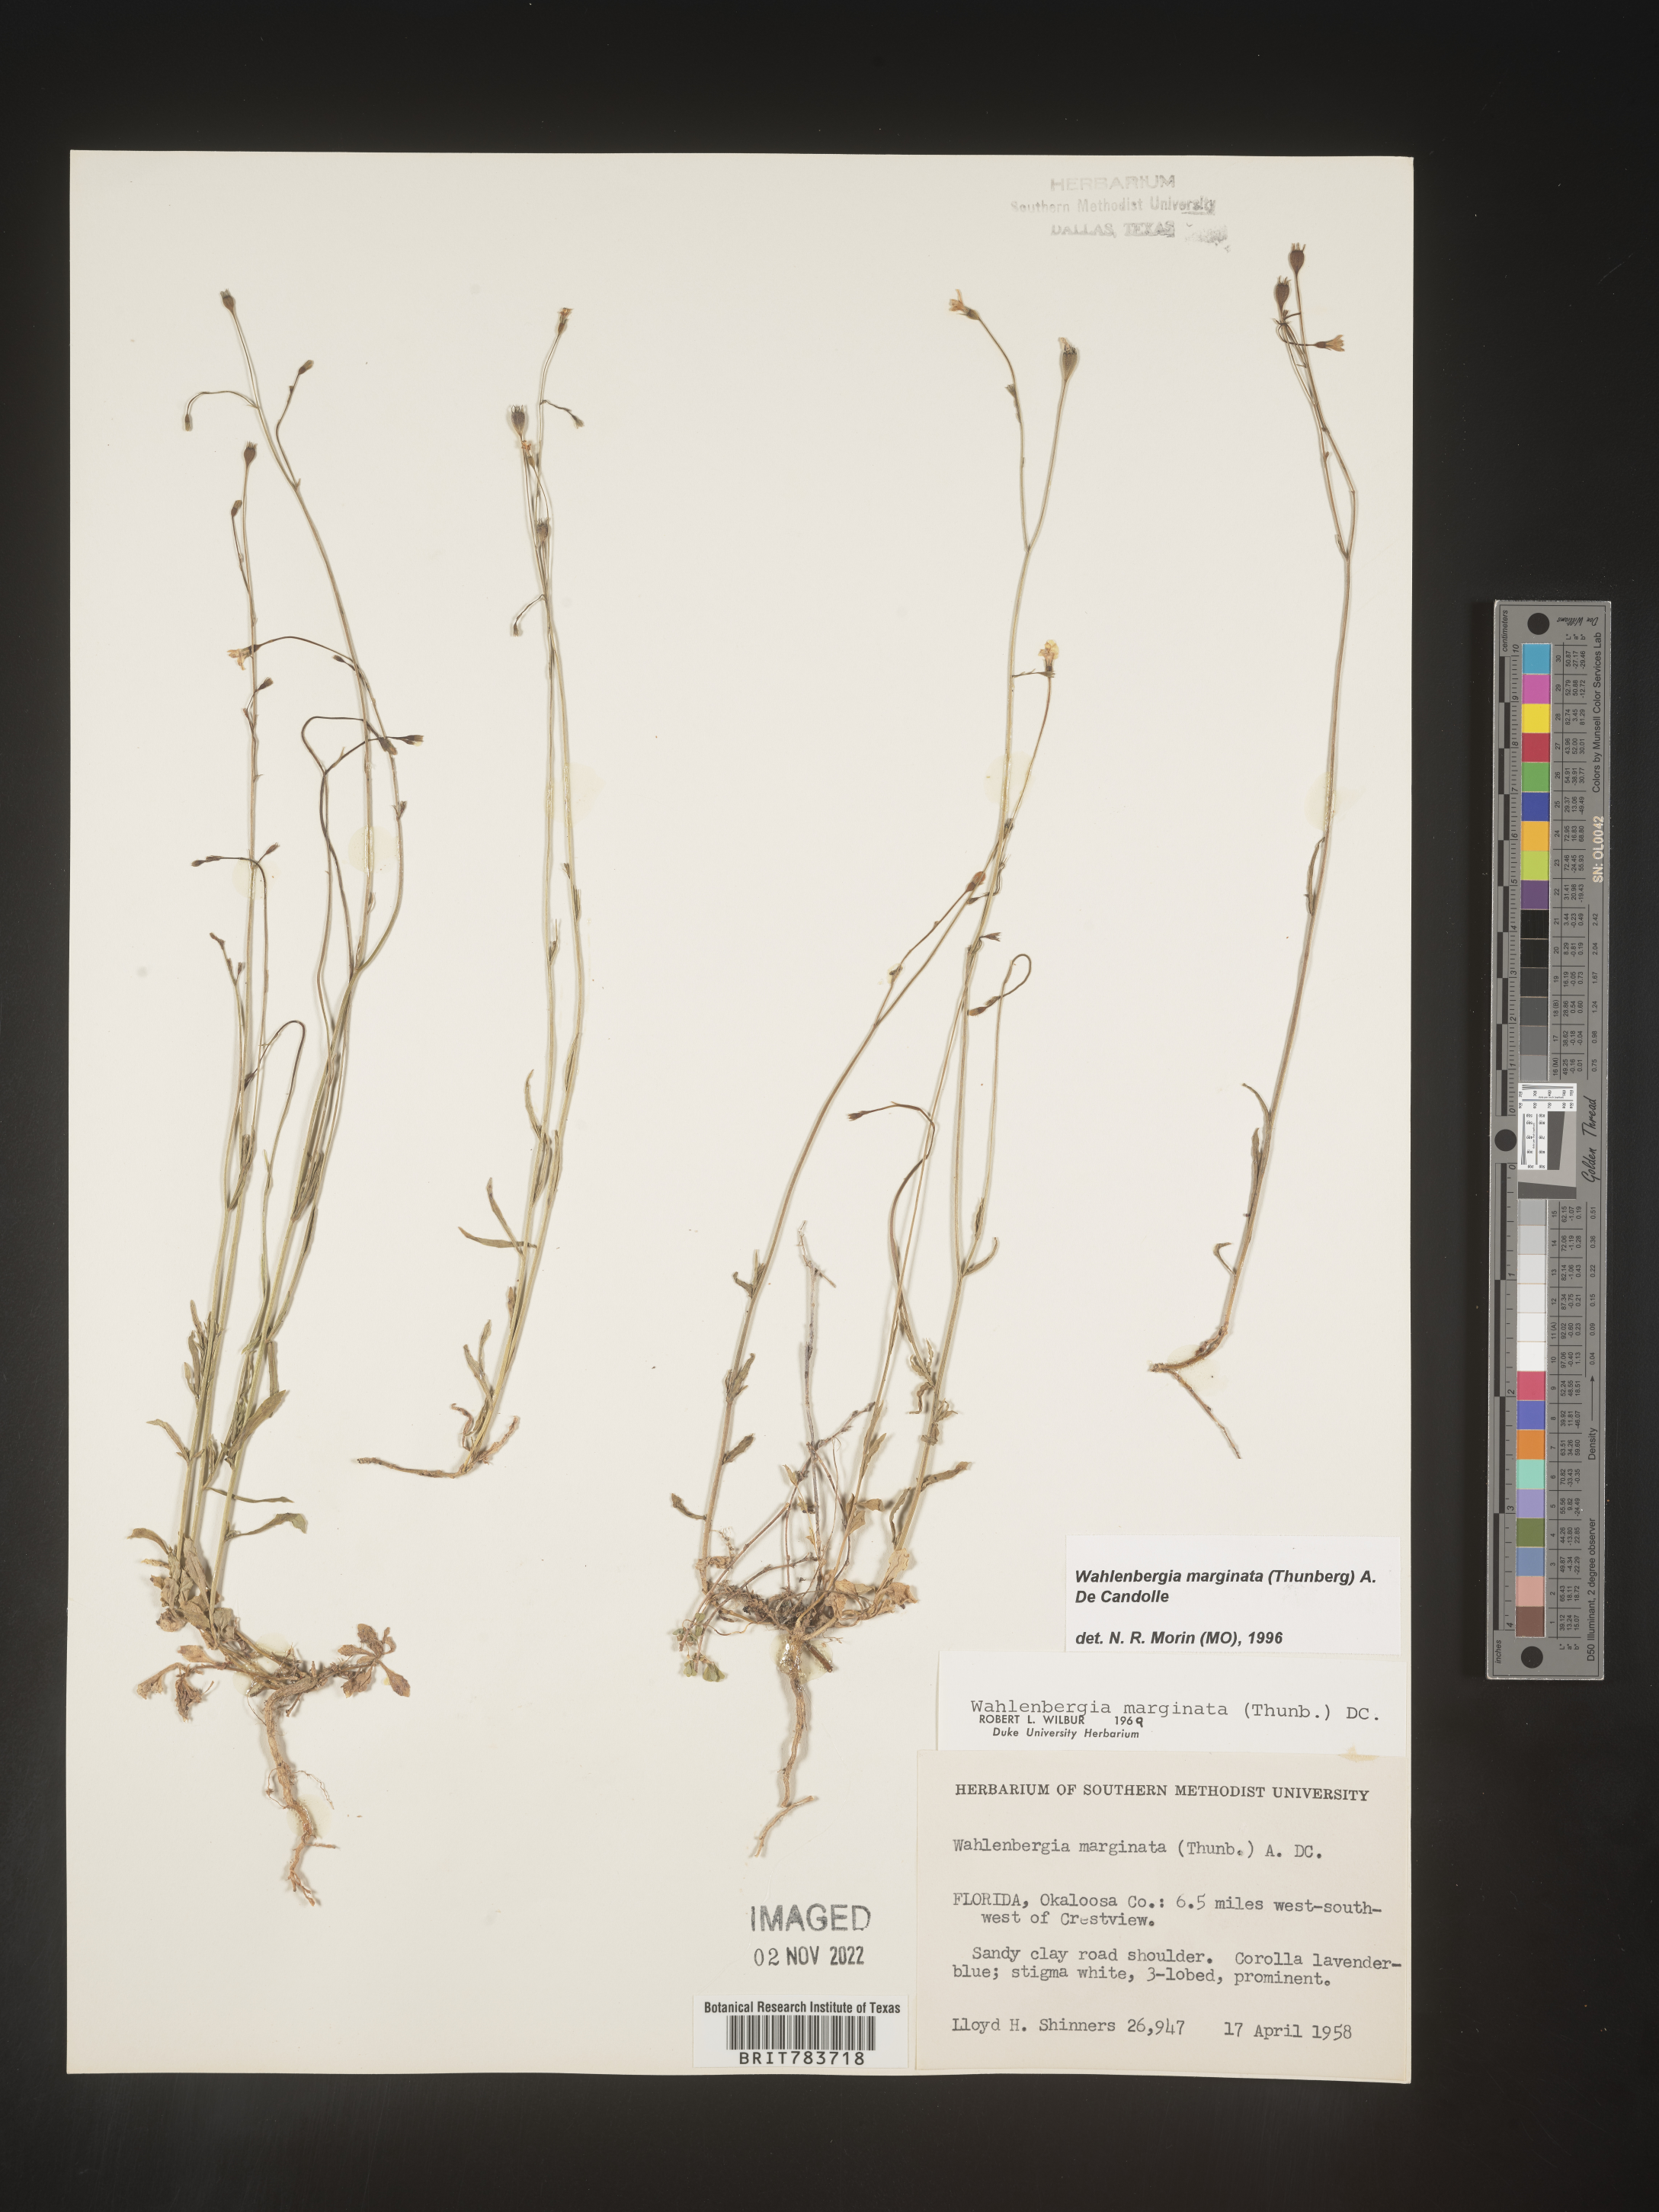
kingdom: Plantae
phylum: Tracheophyta
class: Magnoliopsida
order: Asterales
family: Campanulaceae
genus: Wahlenbergia
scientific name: Wahlenbergia marginata
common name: Southern rockbell
